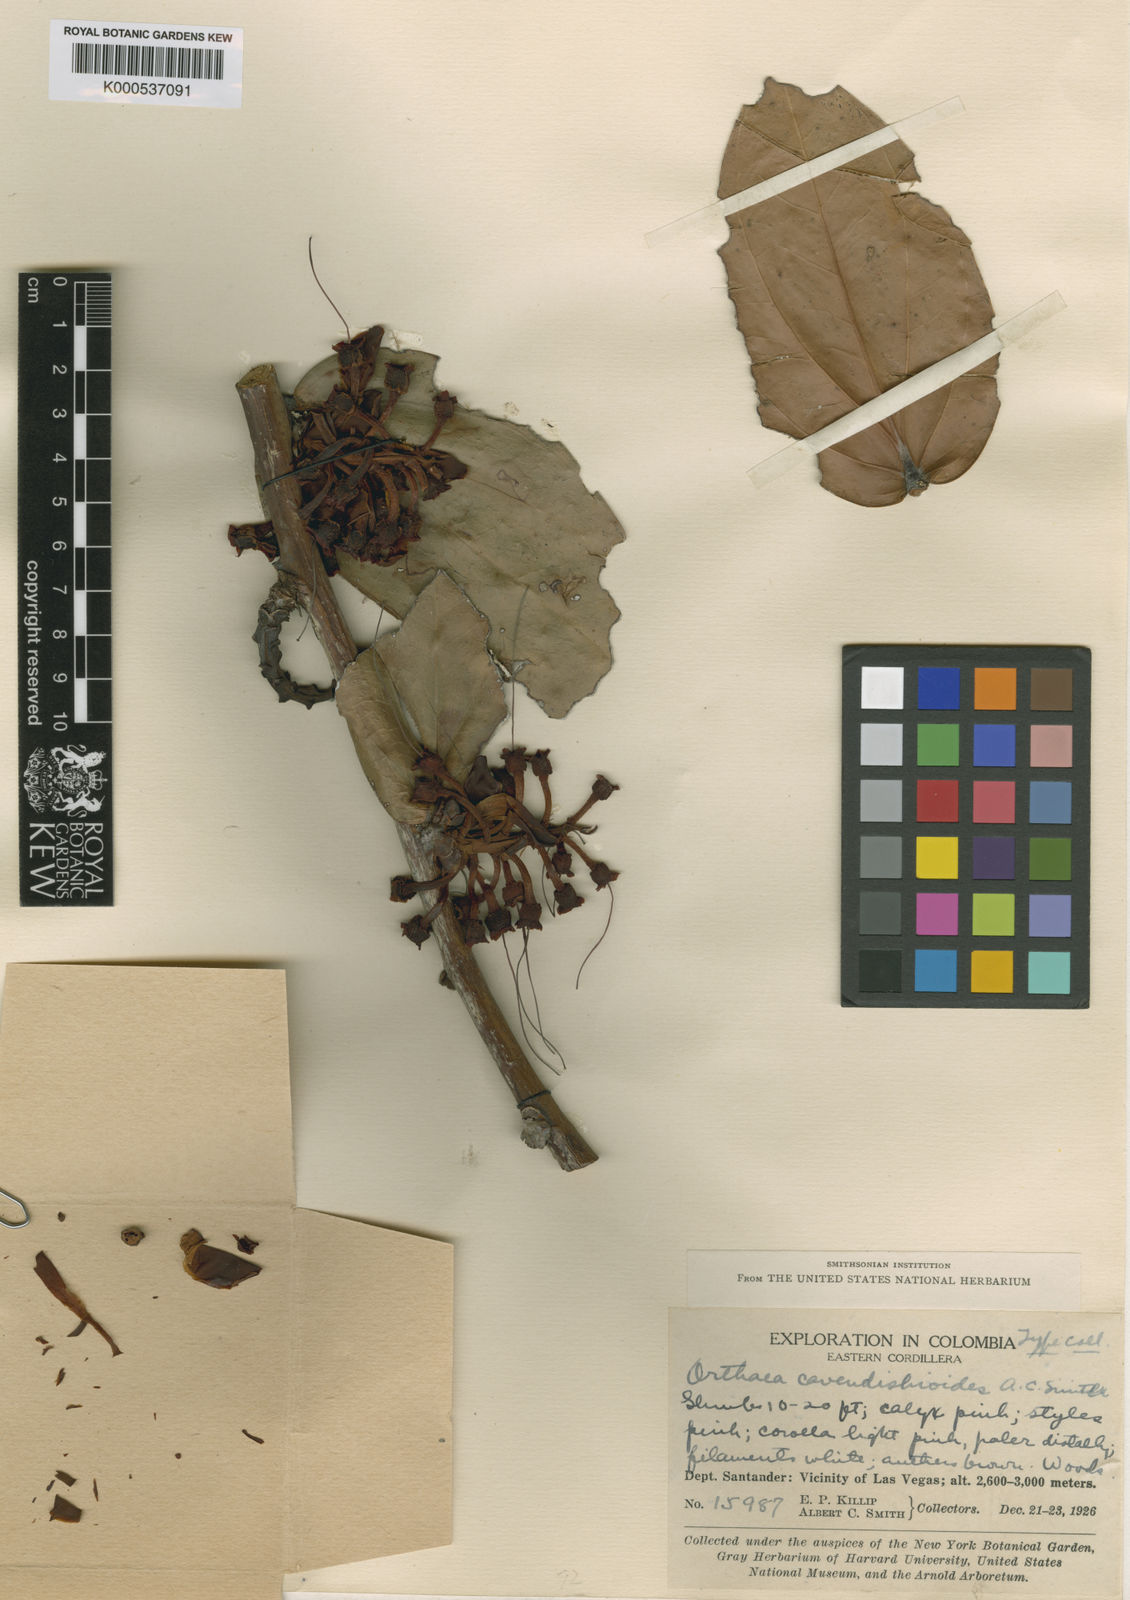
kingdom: Plantae
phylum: Tracheophyta
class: Magnoliopsida
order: Ericales
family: Ericaceae
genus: Orthaea
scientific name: Orthaea cavendishioides
